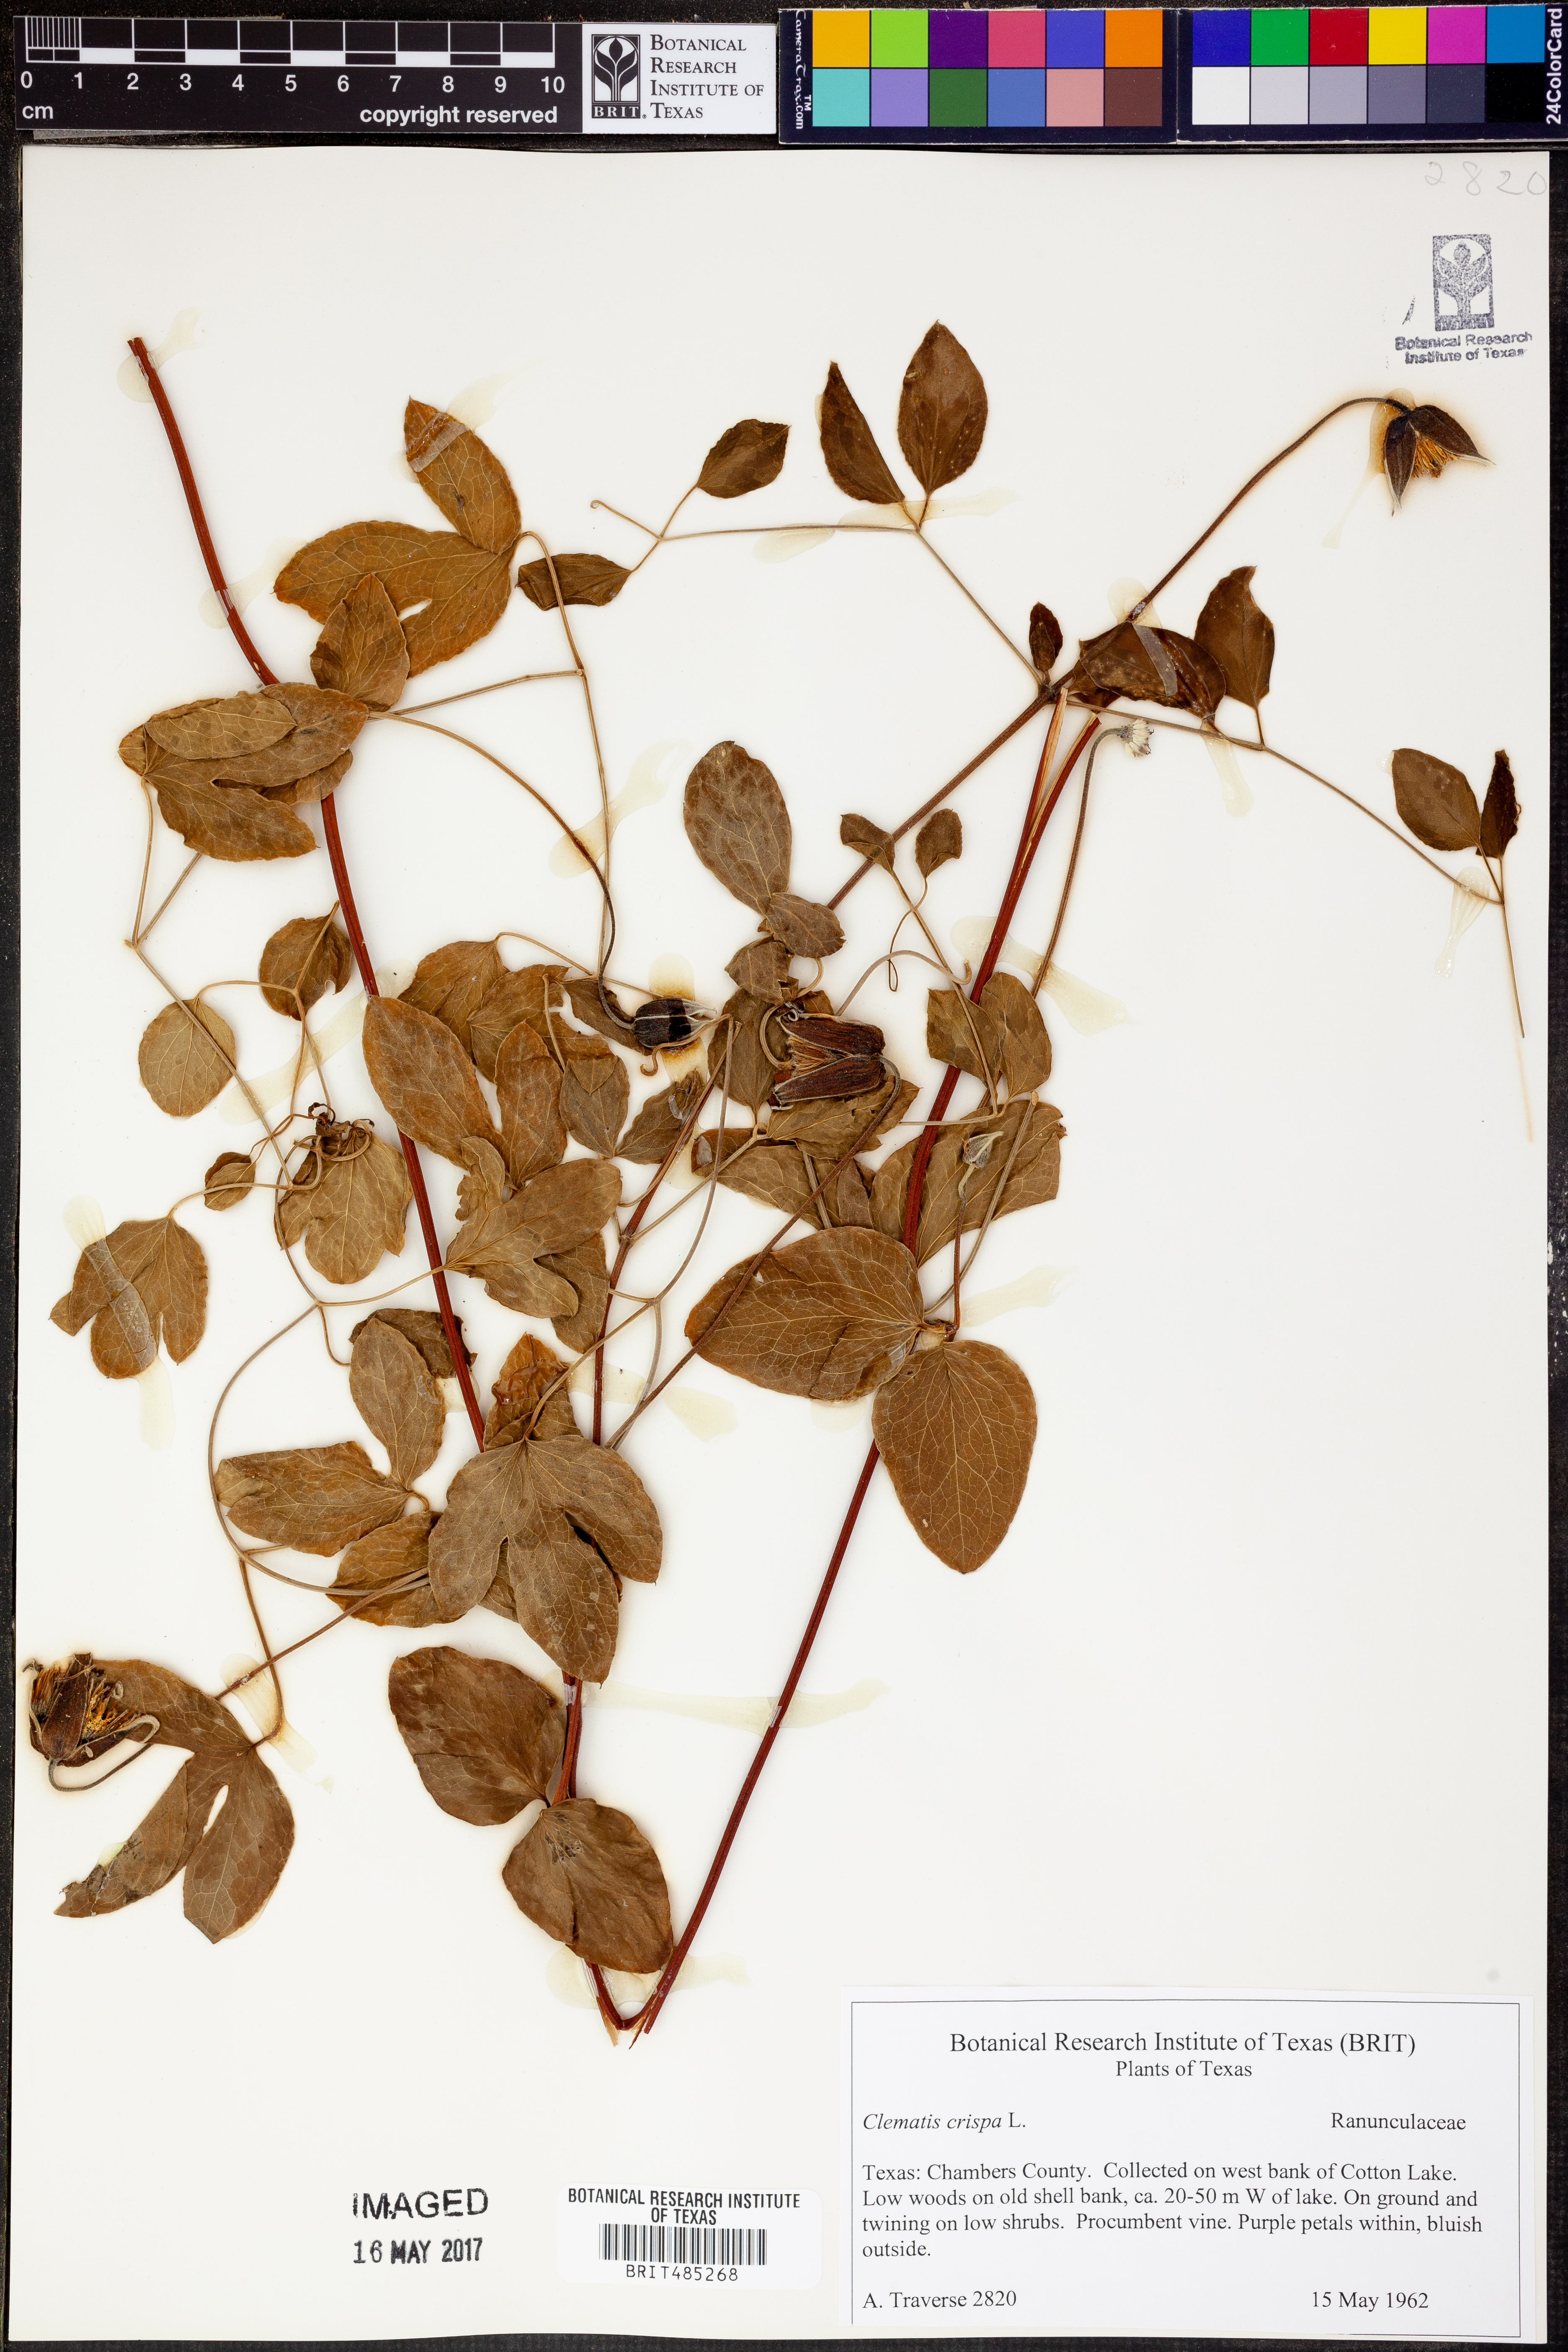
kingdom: Plantae
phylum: Tracheophyta
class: Magnoliopsida
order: Ranunculales
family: Ranunculaceae
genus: Clematis
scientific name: Clematis crispa
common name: Curly clematis
